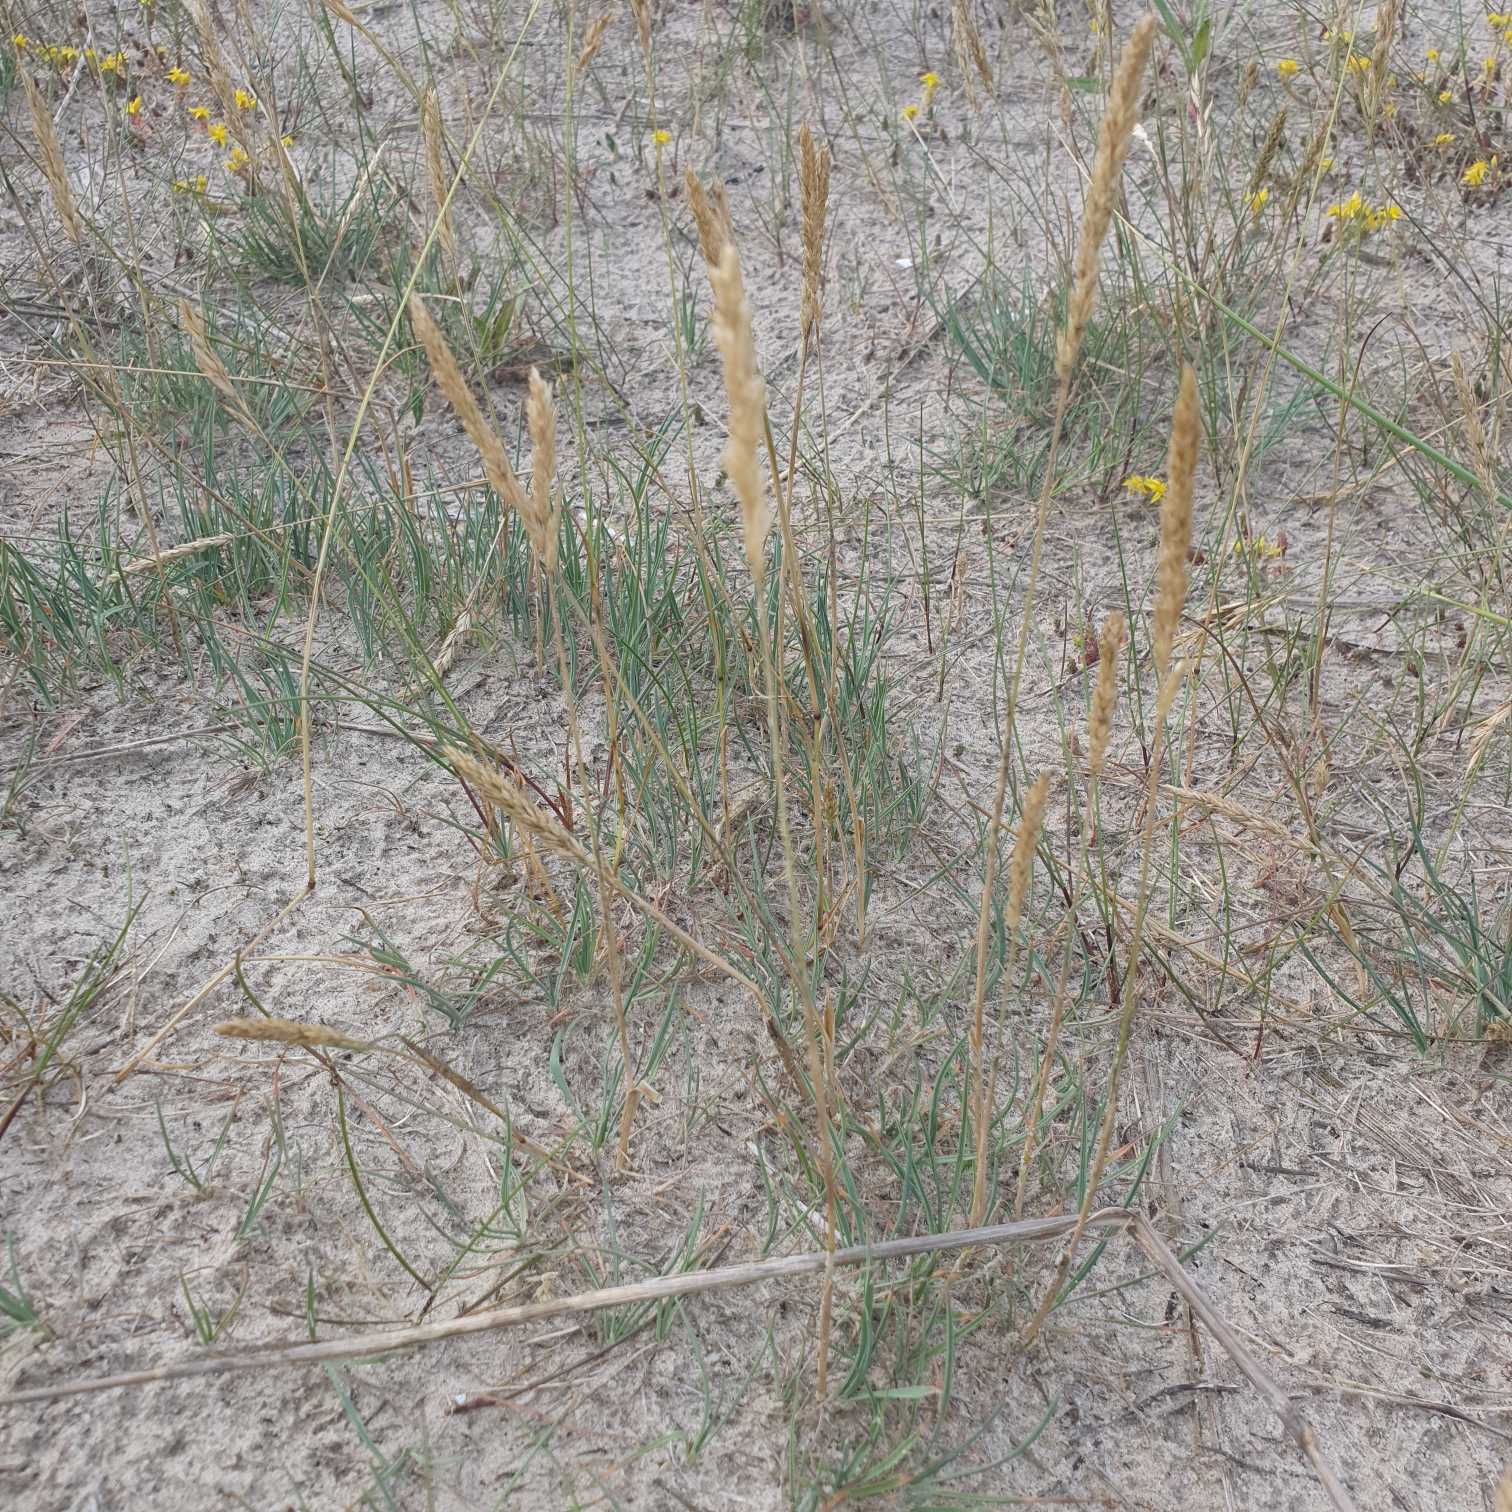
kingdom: Plantae
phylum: Tracheophyta
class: Liliopsida
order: Poales
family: Poaceae
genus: Koeleria
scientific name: Koeleria glauca
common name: Klit-kambunke
